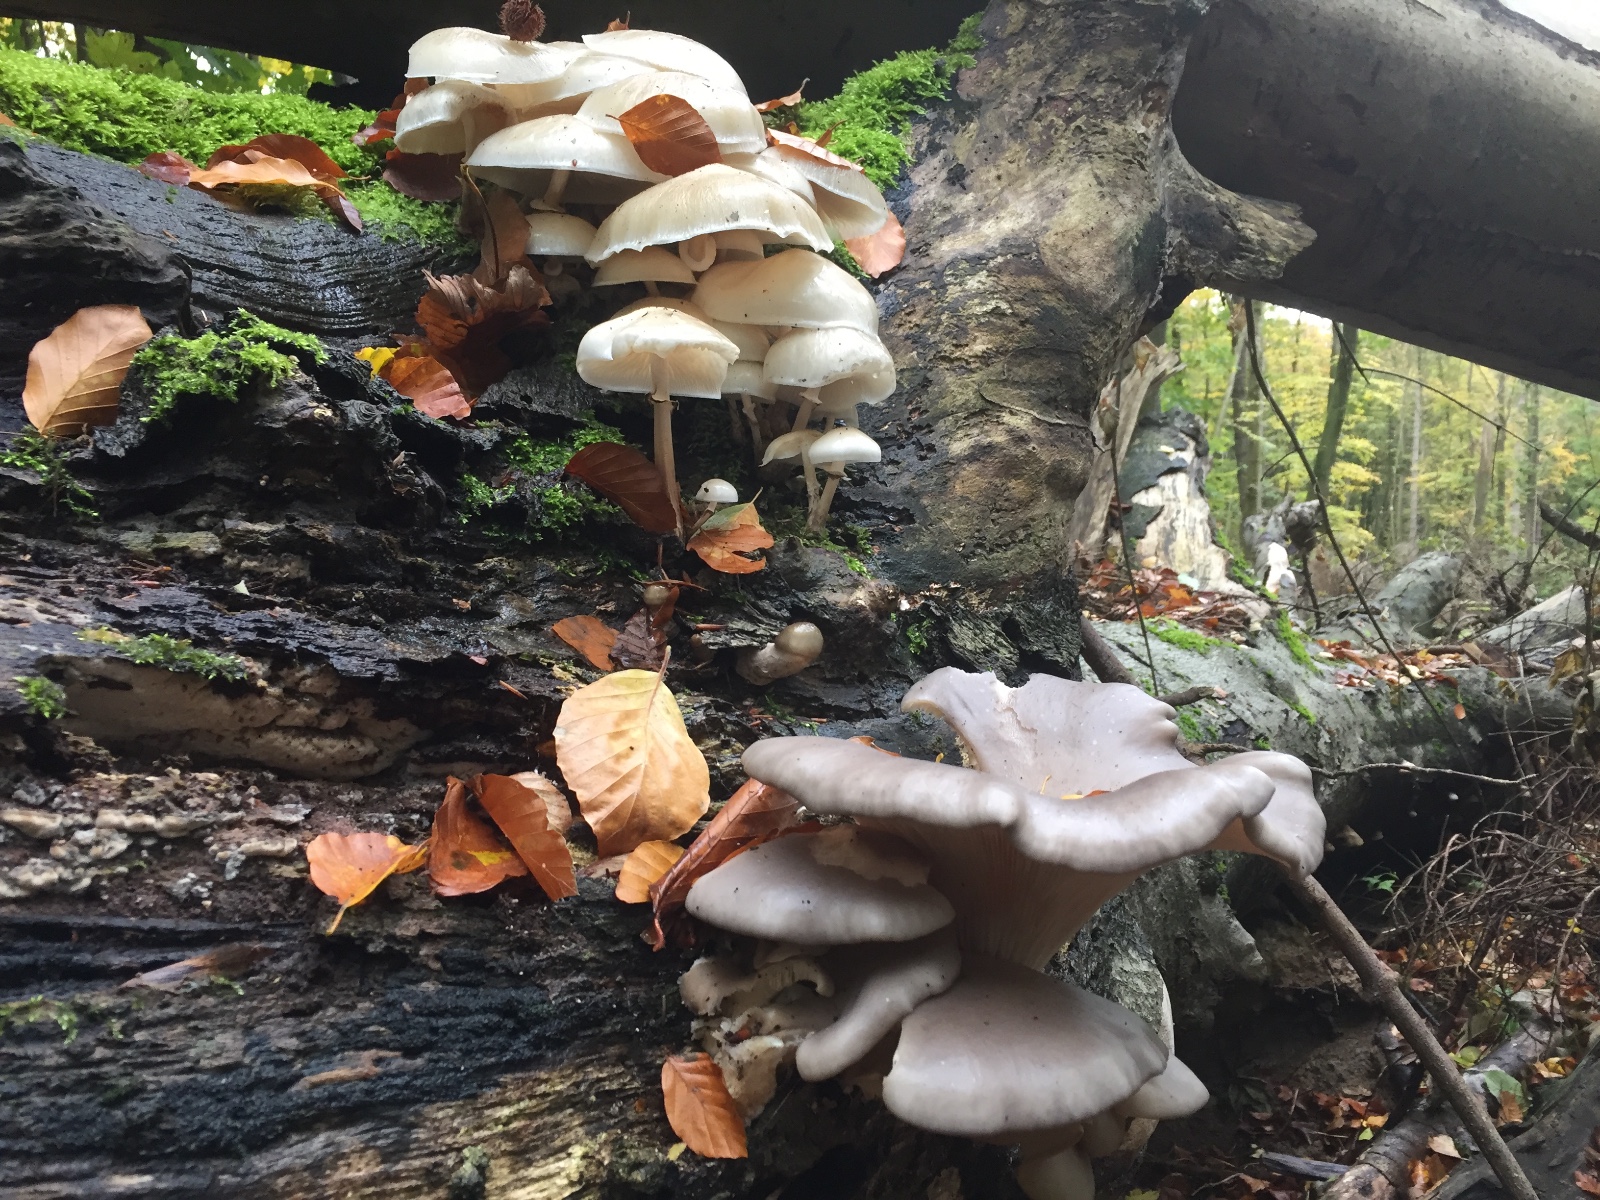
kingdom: Fungi
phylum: Basidiomycota
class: Agaricomycetes
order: Agaricales
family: Pleurotaceae
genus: Pleurotus
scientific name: Pleurotus ostreatus
